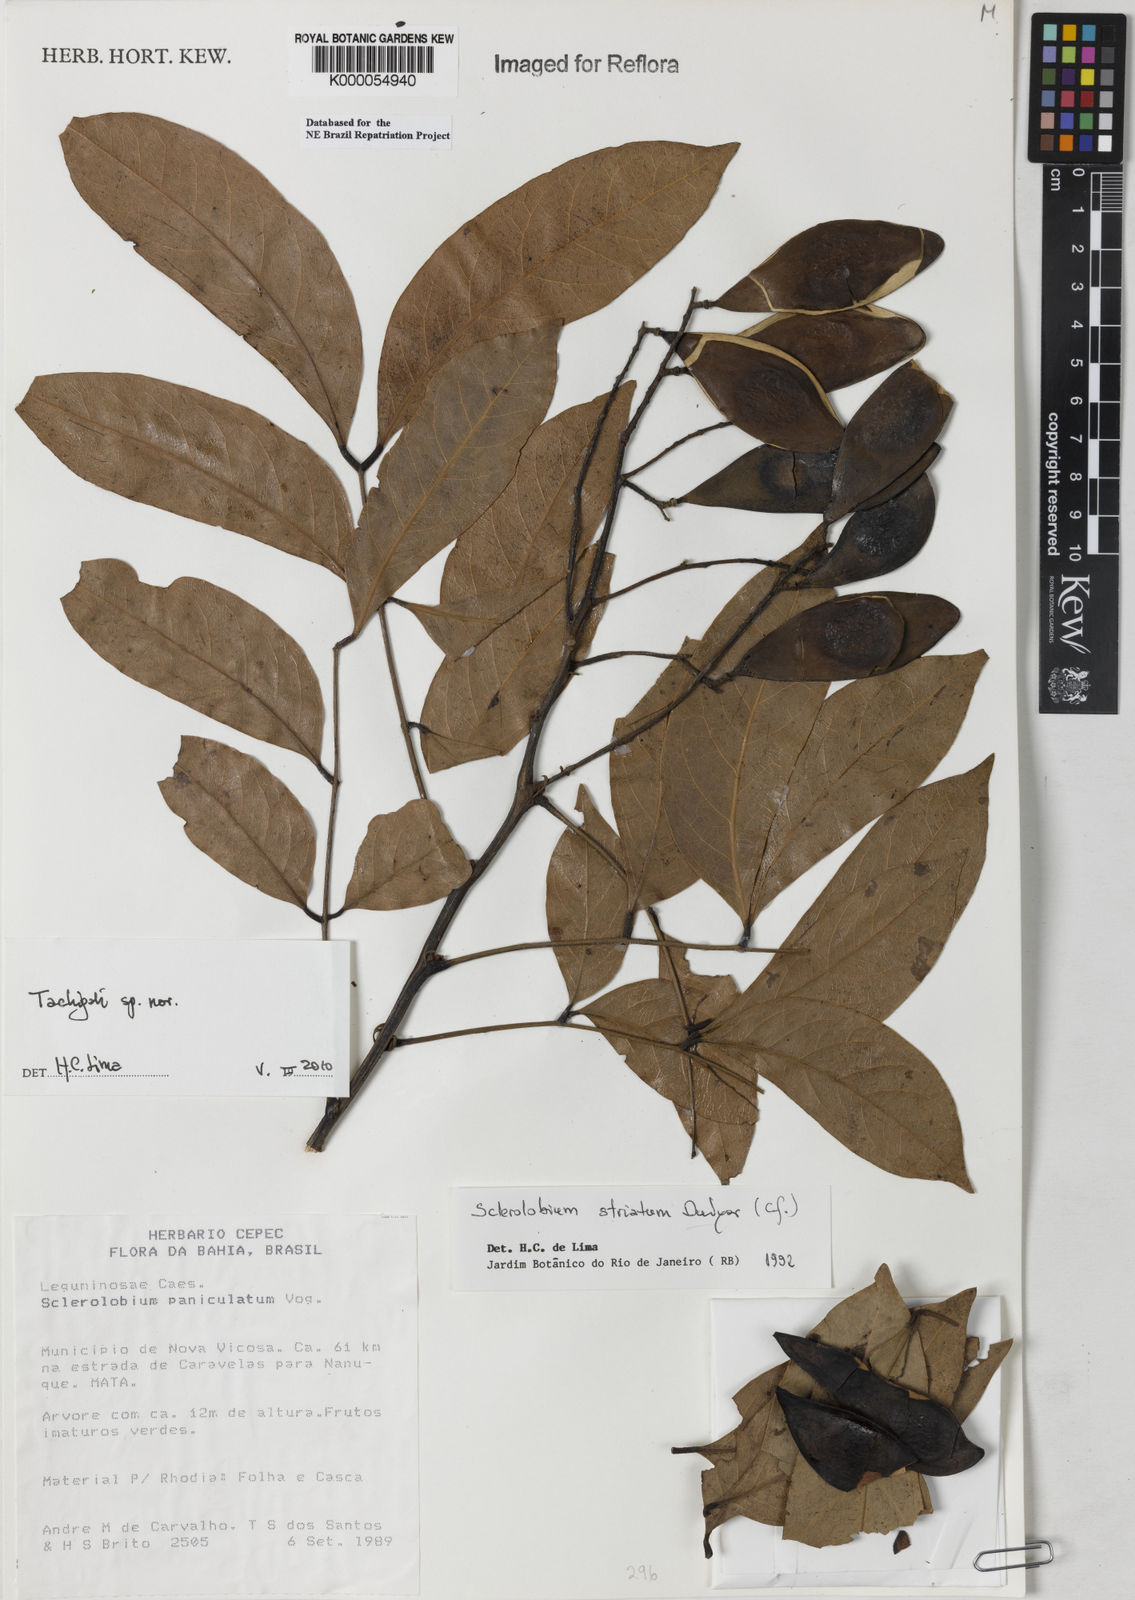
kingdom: Plantae
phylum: Tracheophyta
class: Magnoliopsida
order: Fabales
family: Fabaceae
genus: Tachigali
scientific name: Tachigali pilgeriana
